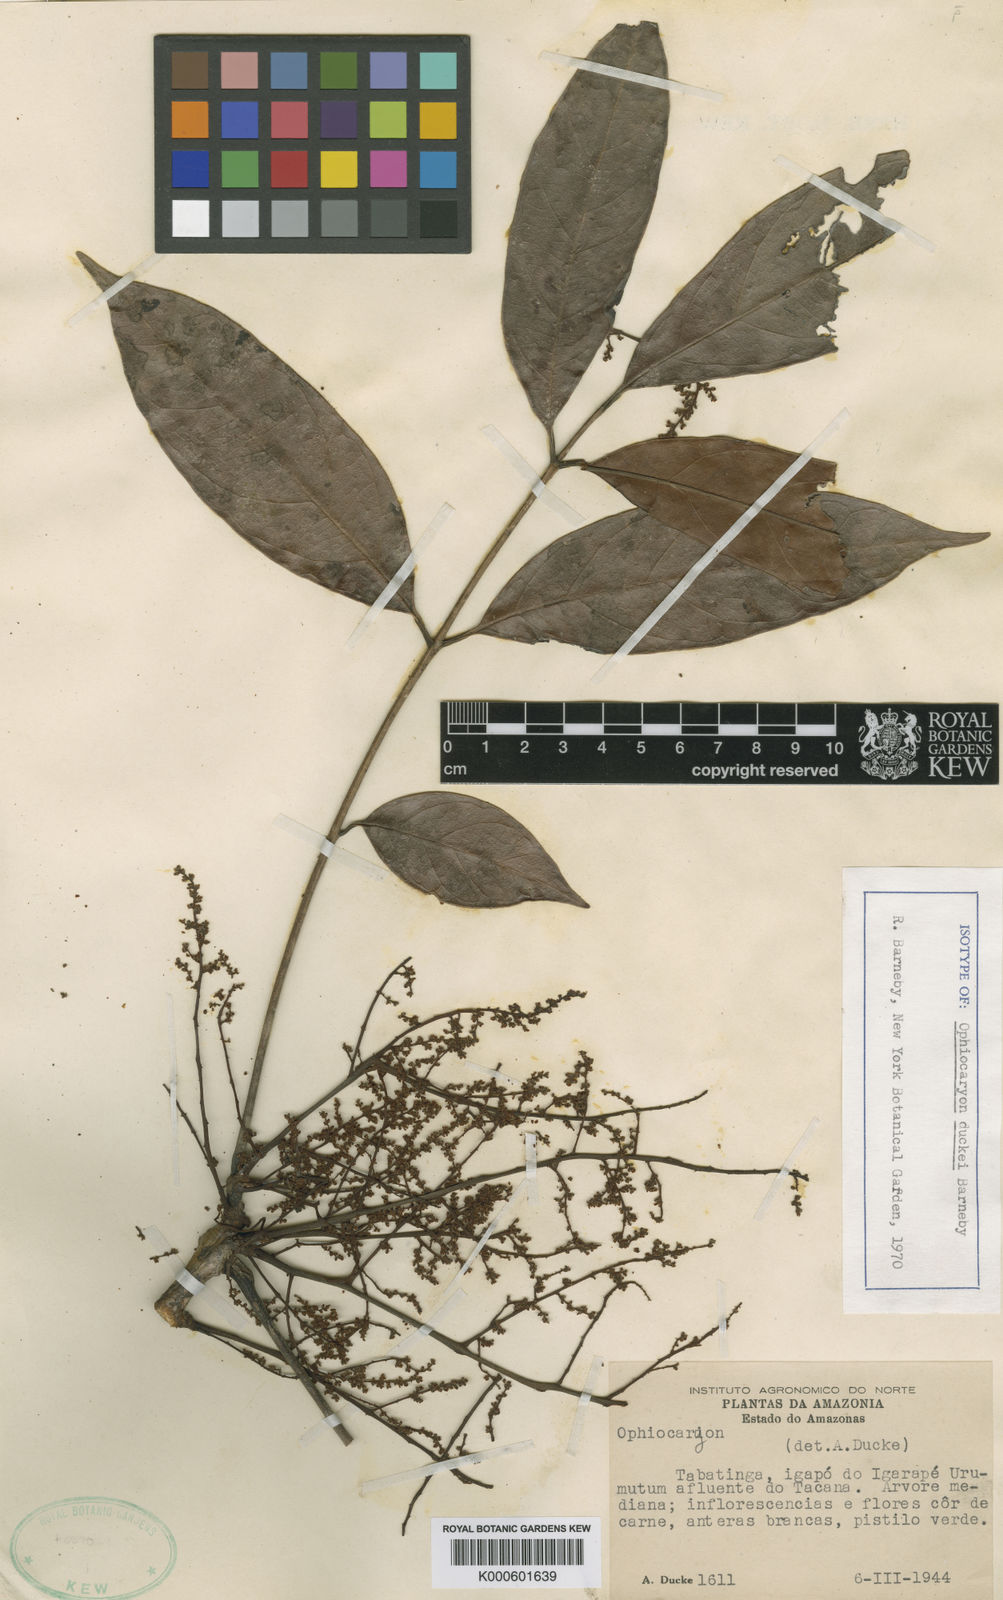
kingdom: Plantae
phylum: Tracheophyta
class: Magnoliopsida
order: Proteales
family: Sabiaceae
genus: Ophiocaryon
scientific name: Ophiocaryon duckei
